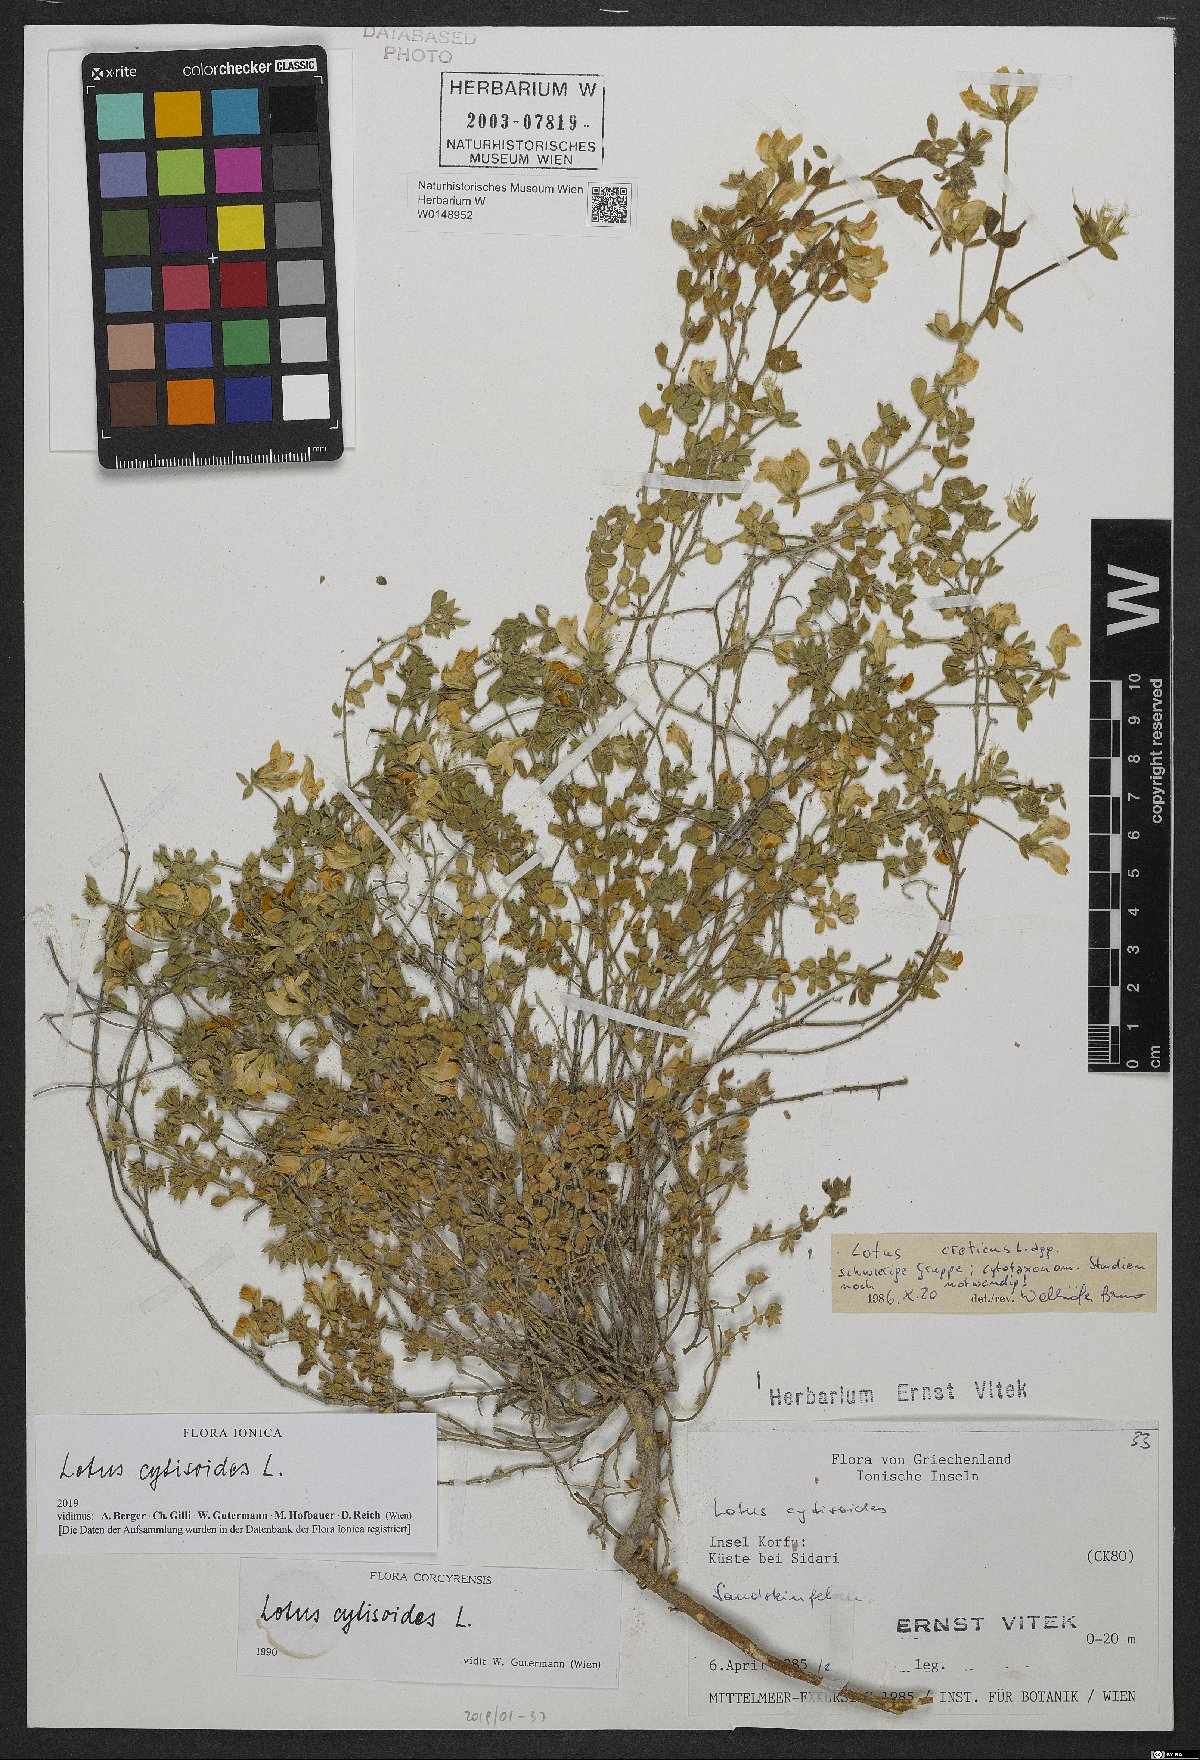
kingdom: Plantae
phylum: Tracheophyta
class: Magnoliopsida
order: Fabales
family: Fabaceae
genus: Lotus
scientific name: Lotus cytisoides
